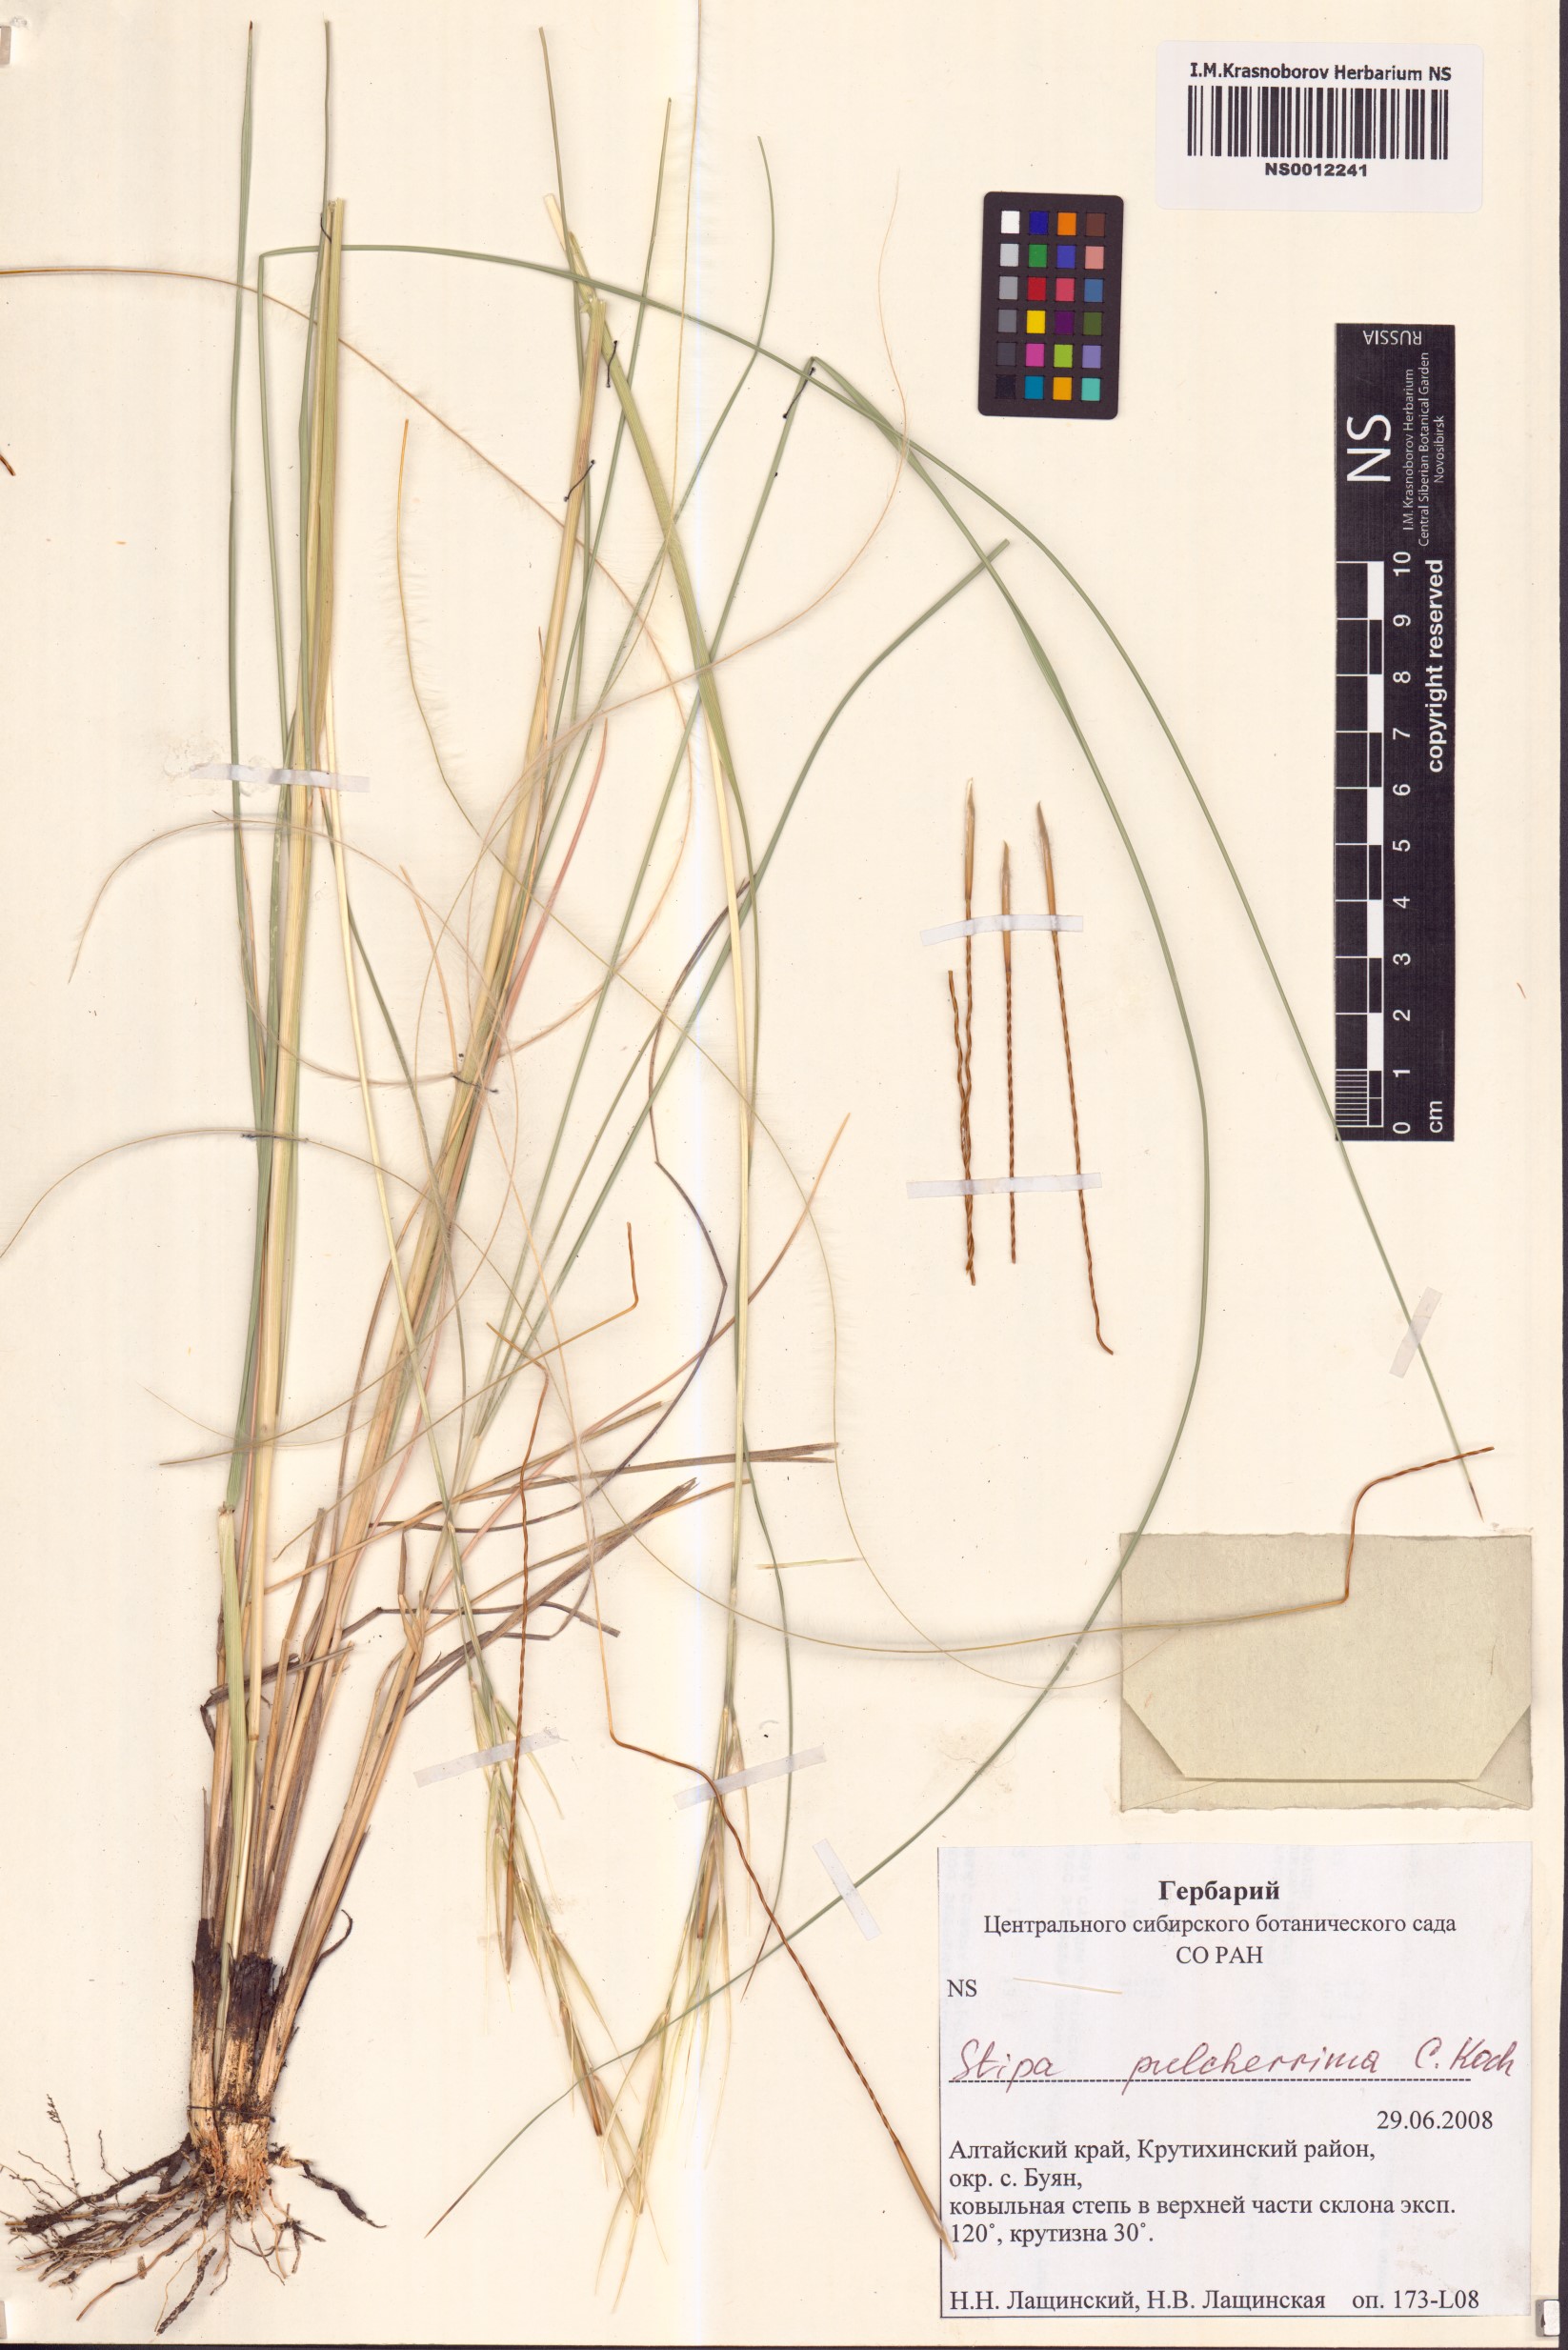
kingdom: Plantae
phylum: Tracheophyta
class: Liliopsida
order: Poales
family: Poaceae
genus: Stipa
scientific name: Stipa pulcherrima
